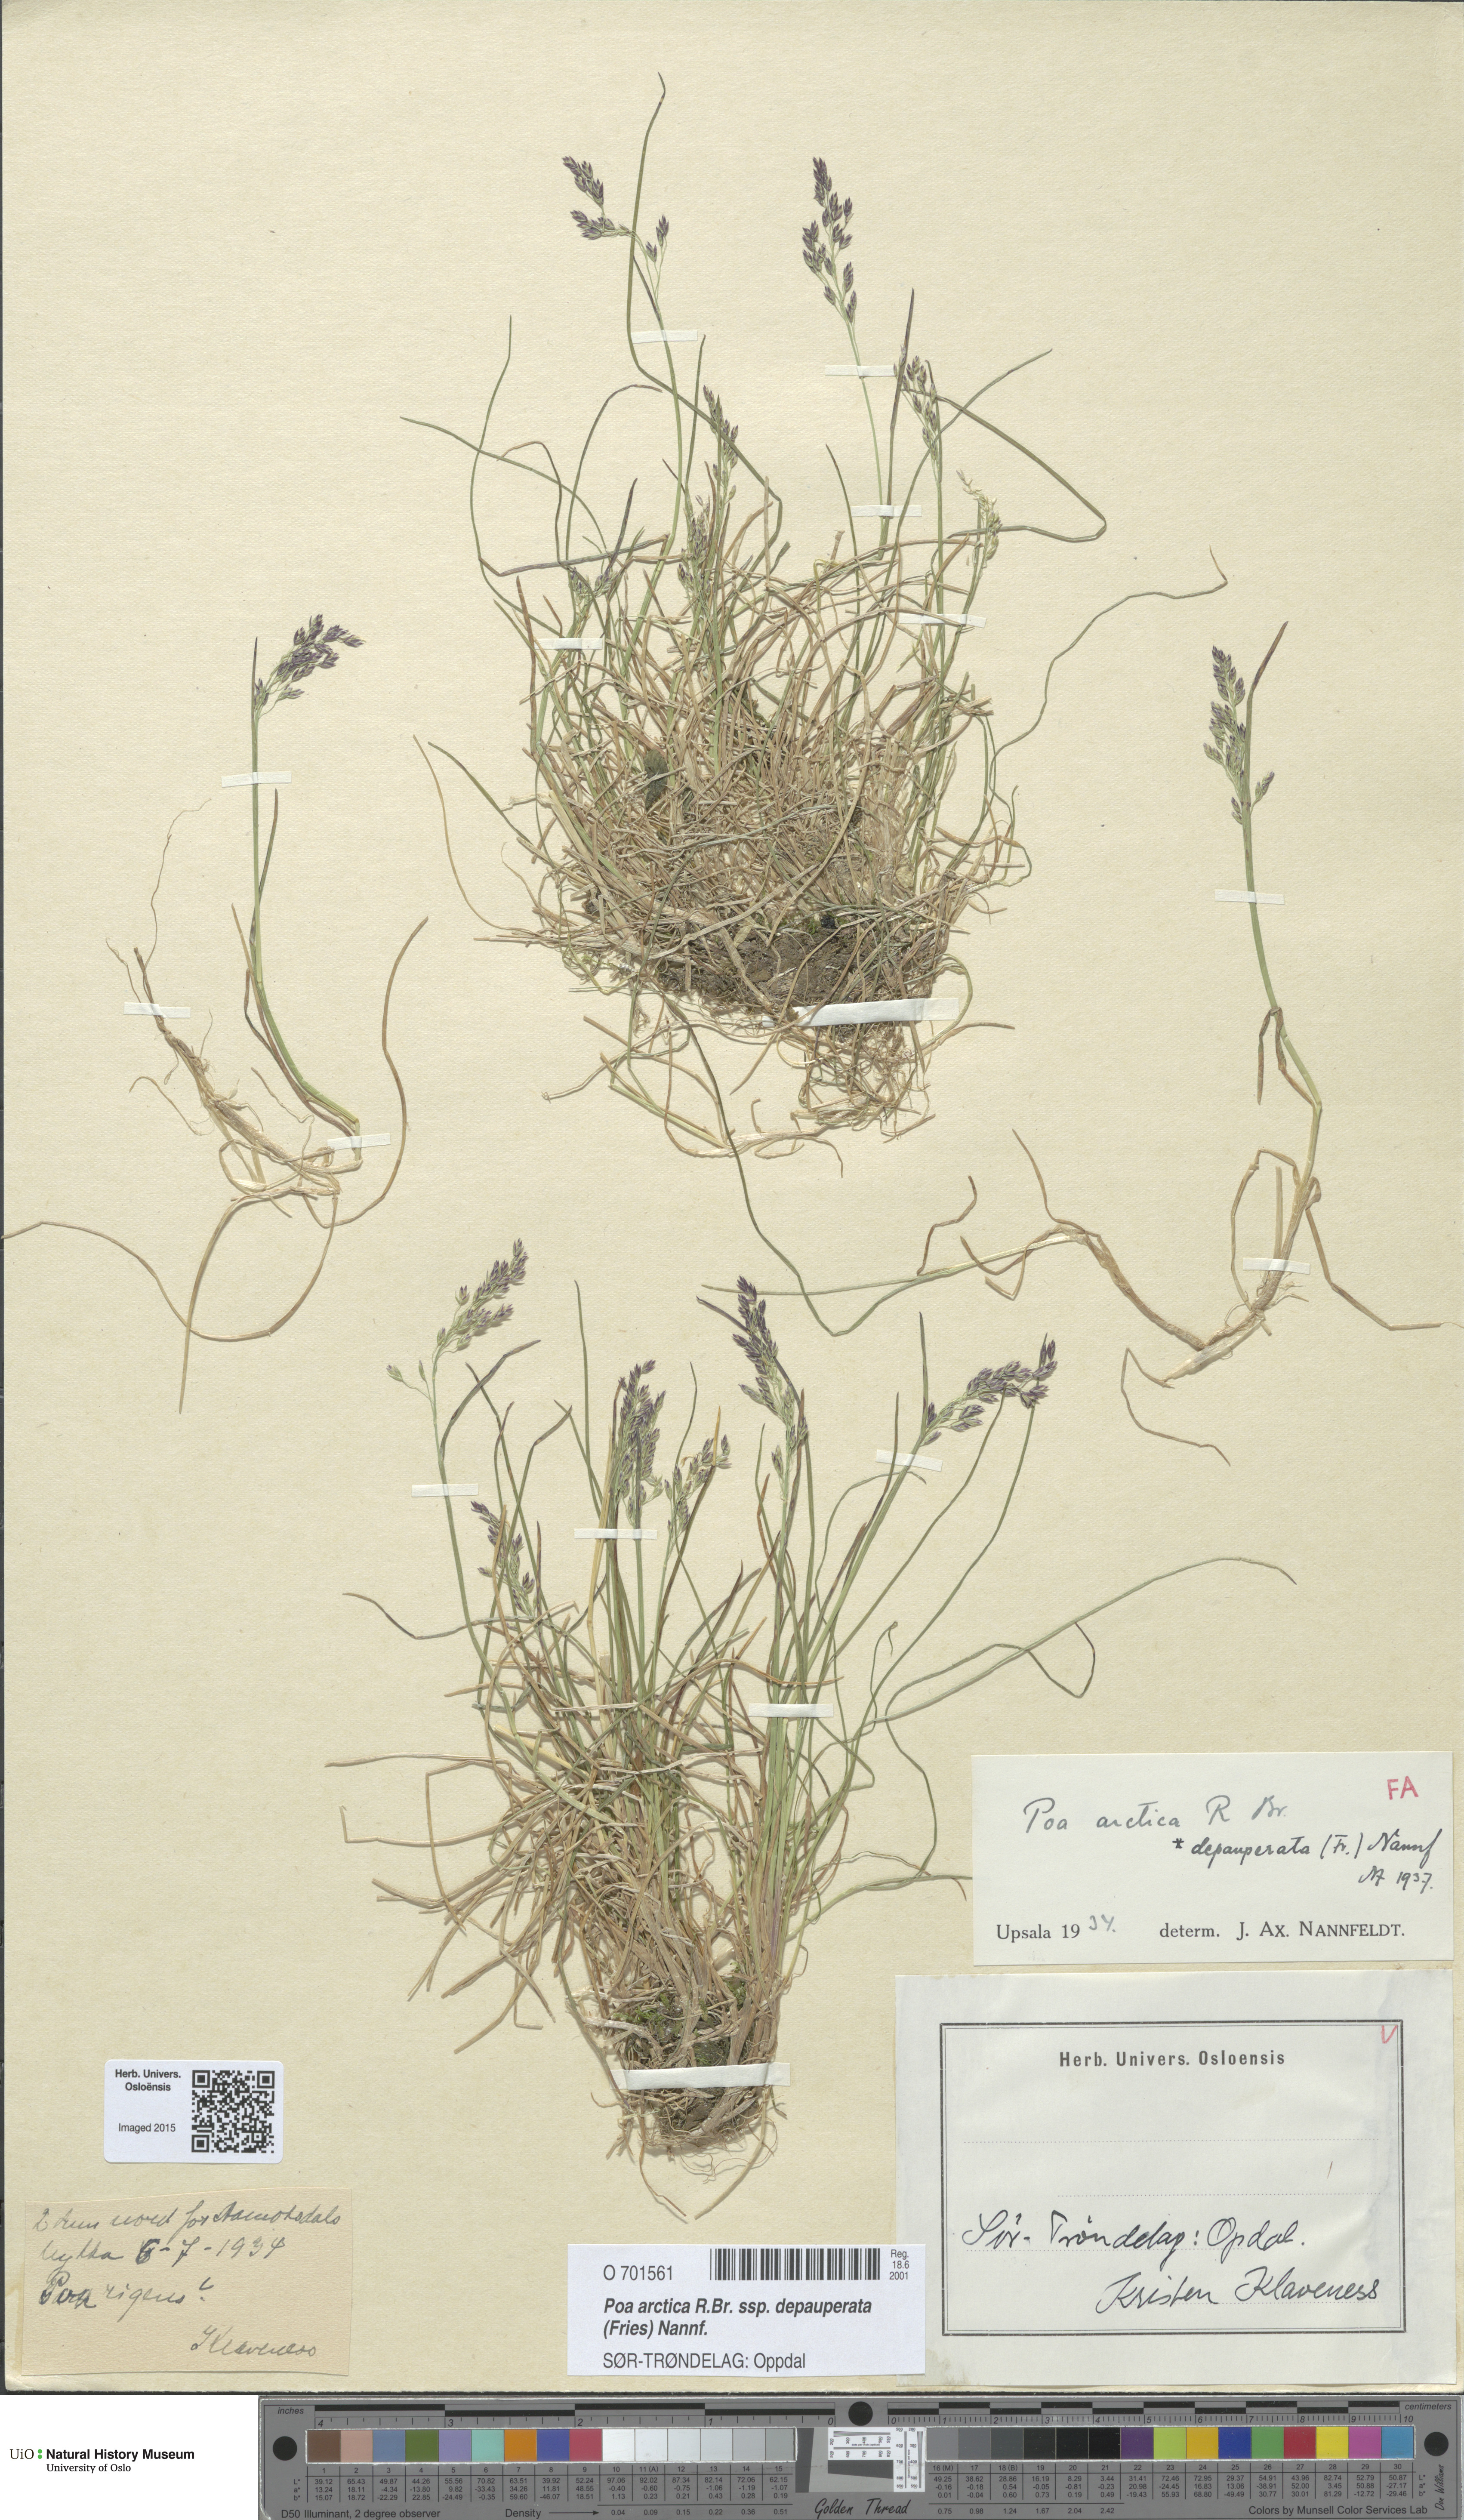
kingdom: Plantae
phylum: Tracheophyta
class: Liliopsida
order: Poales
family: Poaceae
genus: Poa
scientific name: Poa arctica
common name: Arctic bluegrass
